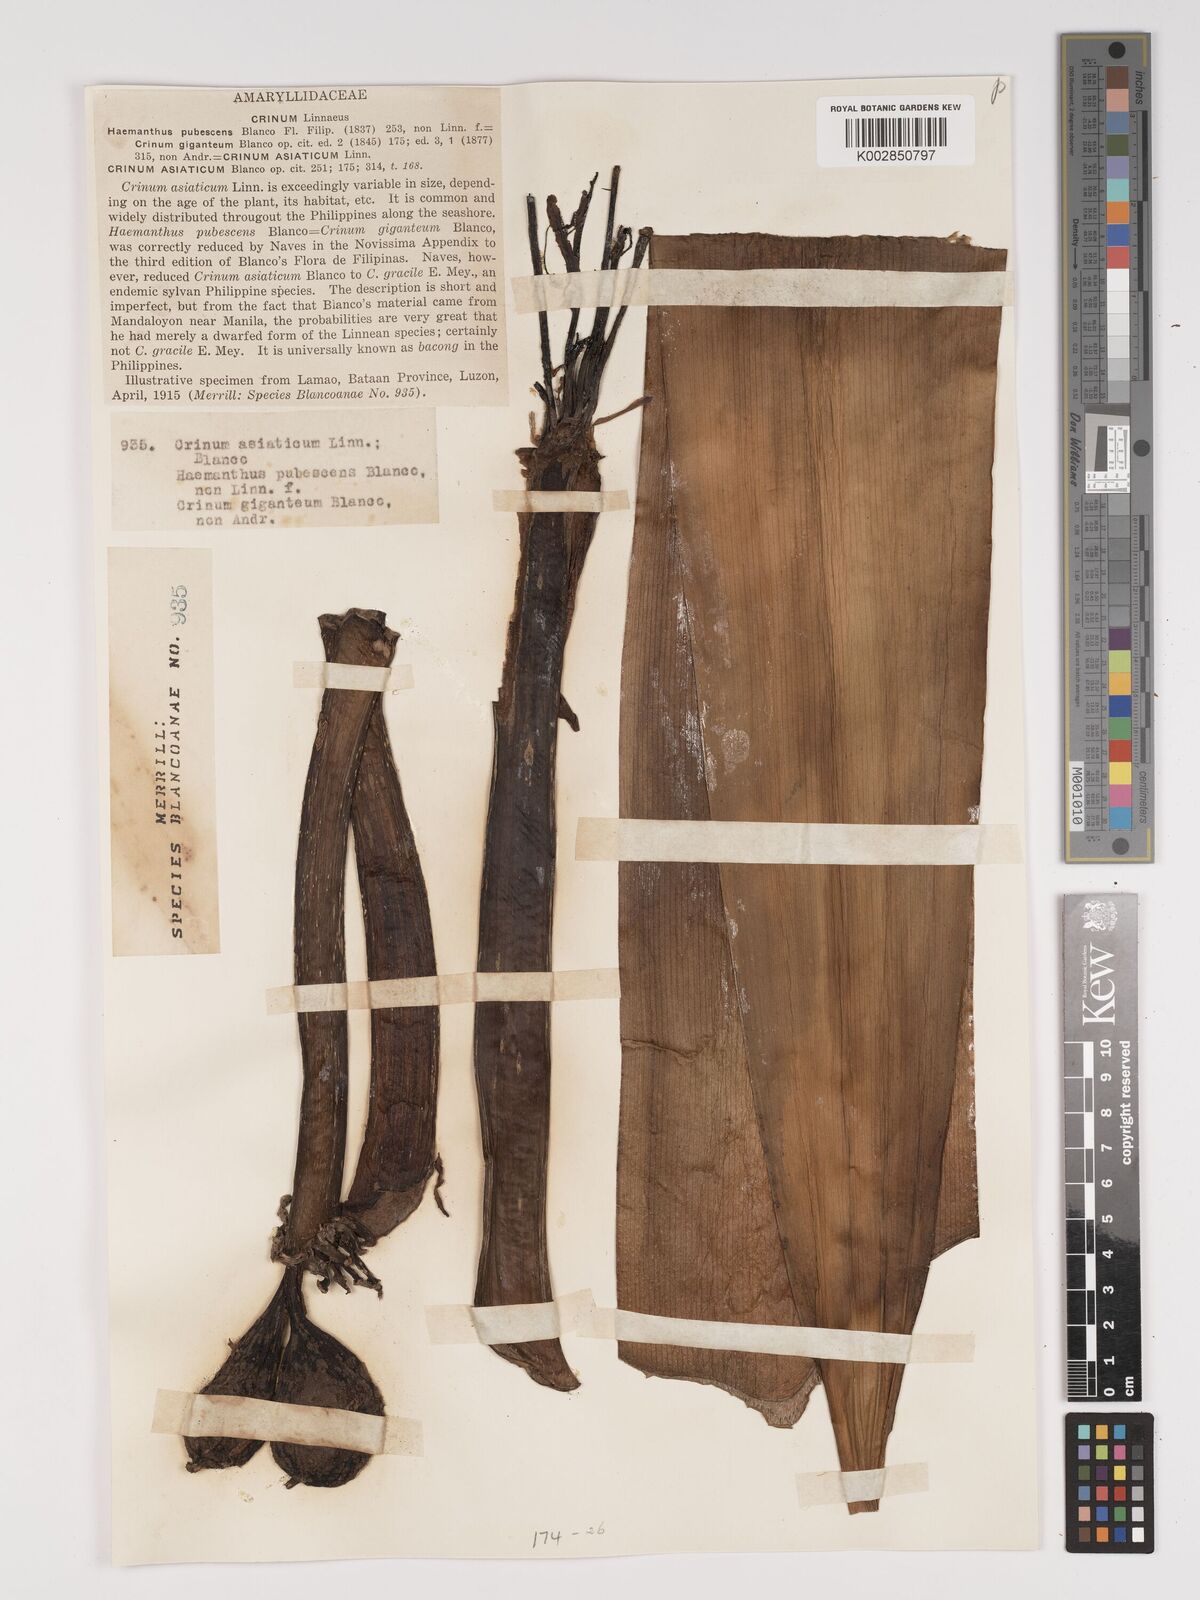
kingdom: Plantae
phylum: Tracheophyta
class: Liliopsida
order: Asparagales
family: Amaryllidaceae
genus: Crinum
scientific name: Crinum asiaticum
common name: Poisonbulb
